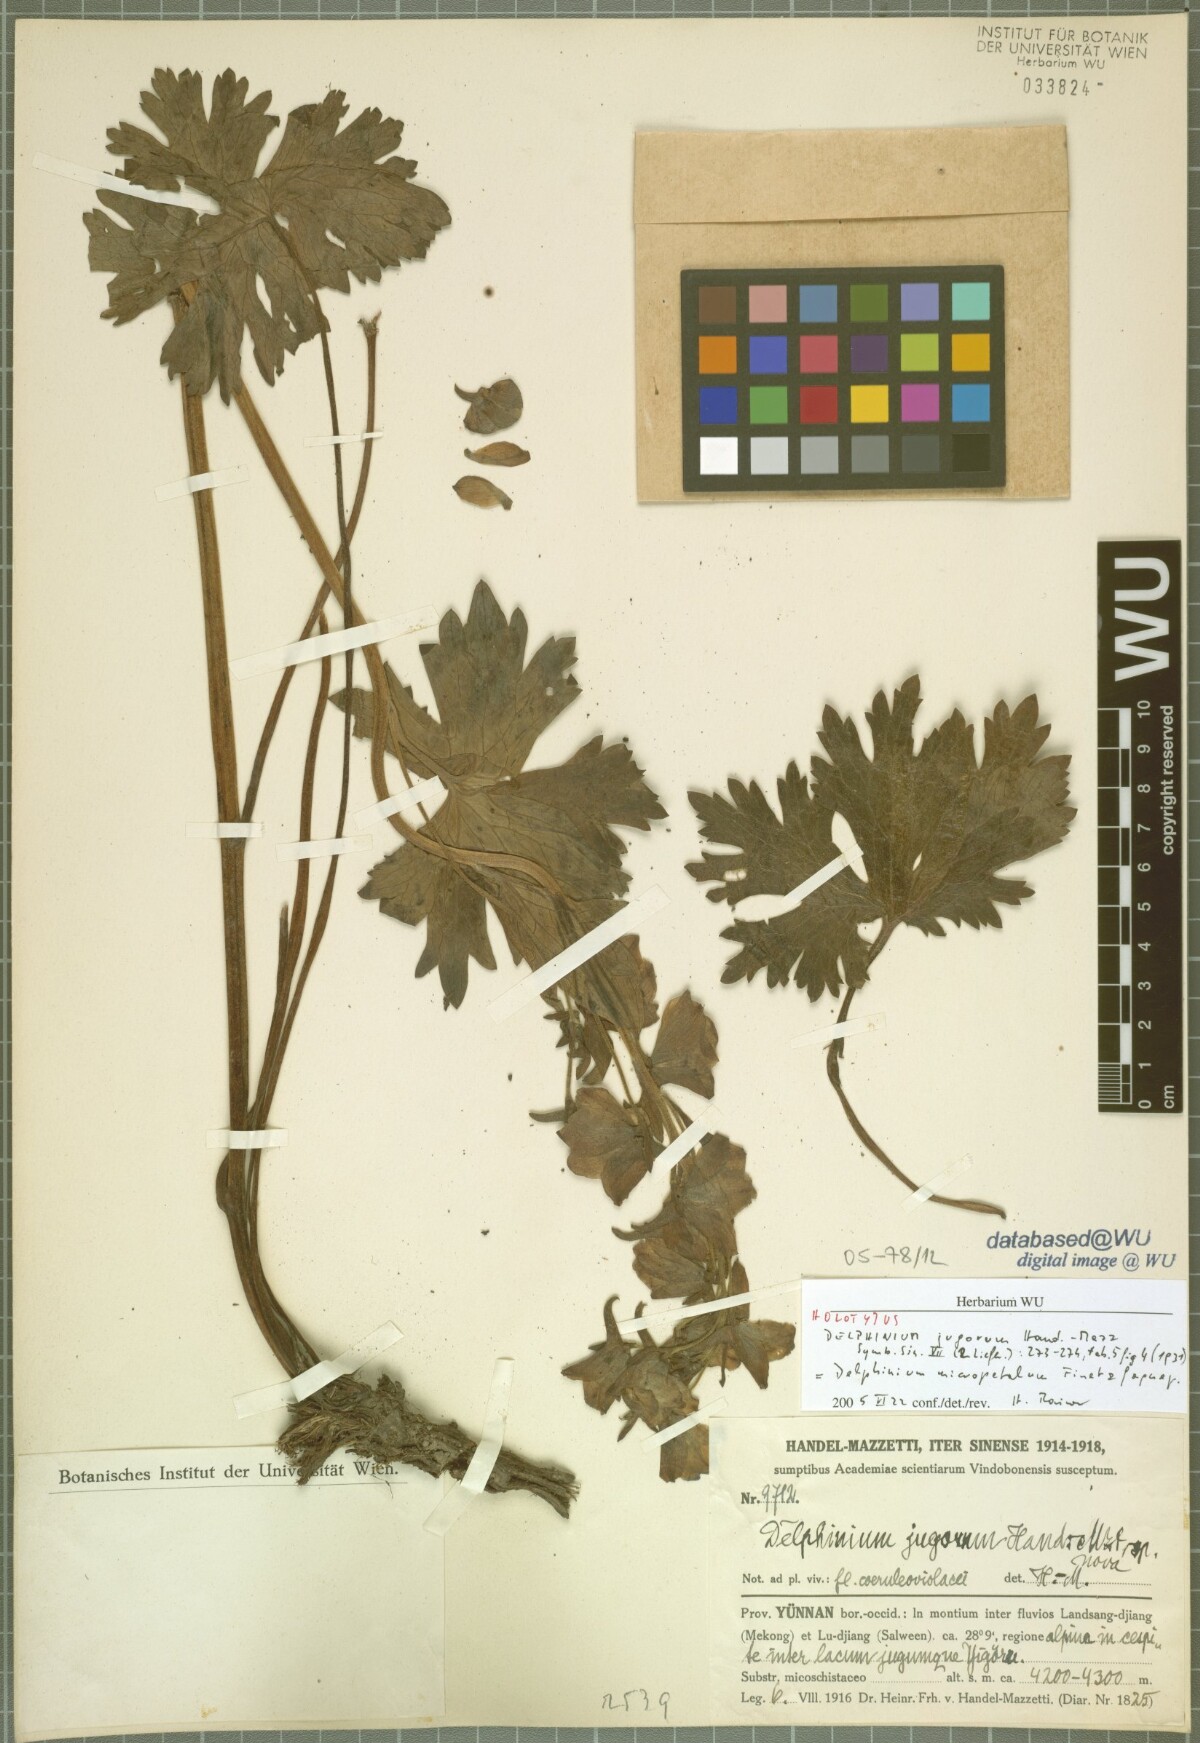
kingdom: Plantae
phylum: Tracheophyta
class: Magnoliopsida
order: Ranunculales
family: Ranunculaceae
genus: Delphinium
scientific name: Delphinium micropetalum
